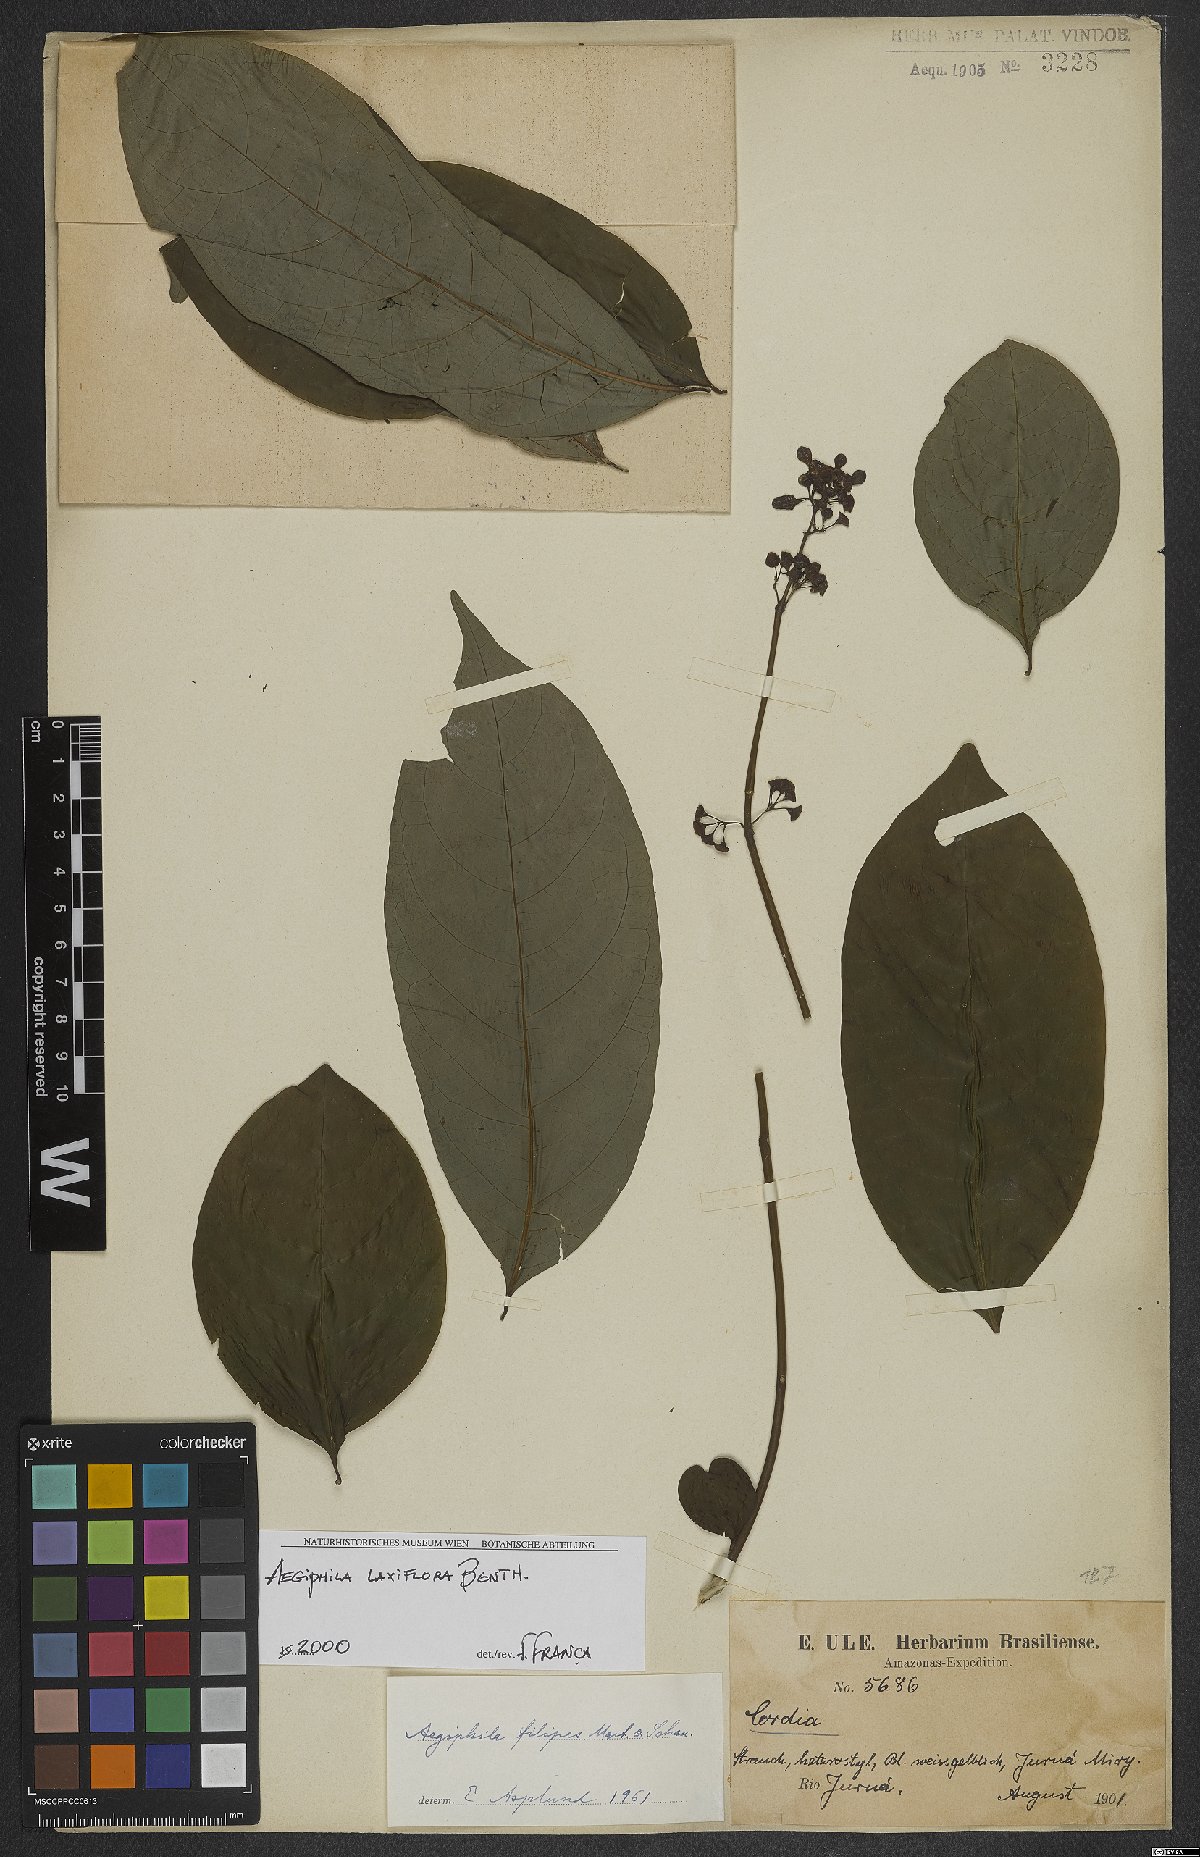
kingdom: Plantae
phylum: Tracheophyta
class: Magnoliopsida
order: Lamiales
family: Lamiaceae
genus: Aegiphila
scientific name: Aegiphila laxiflora
